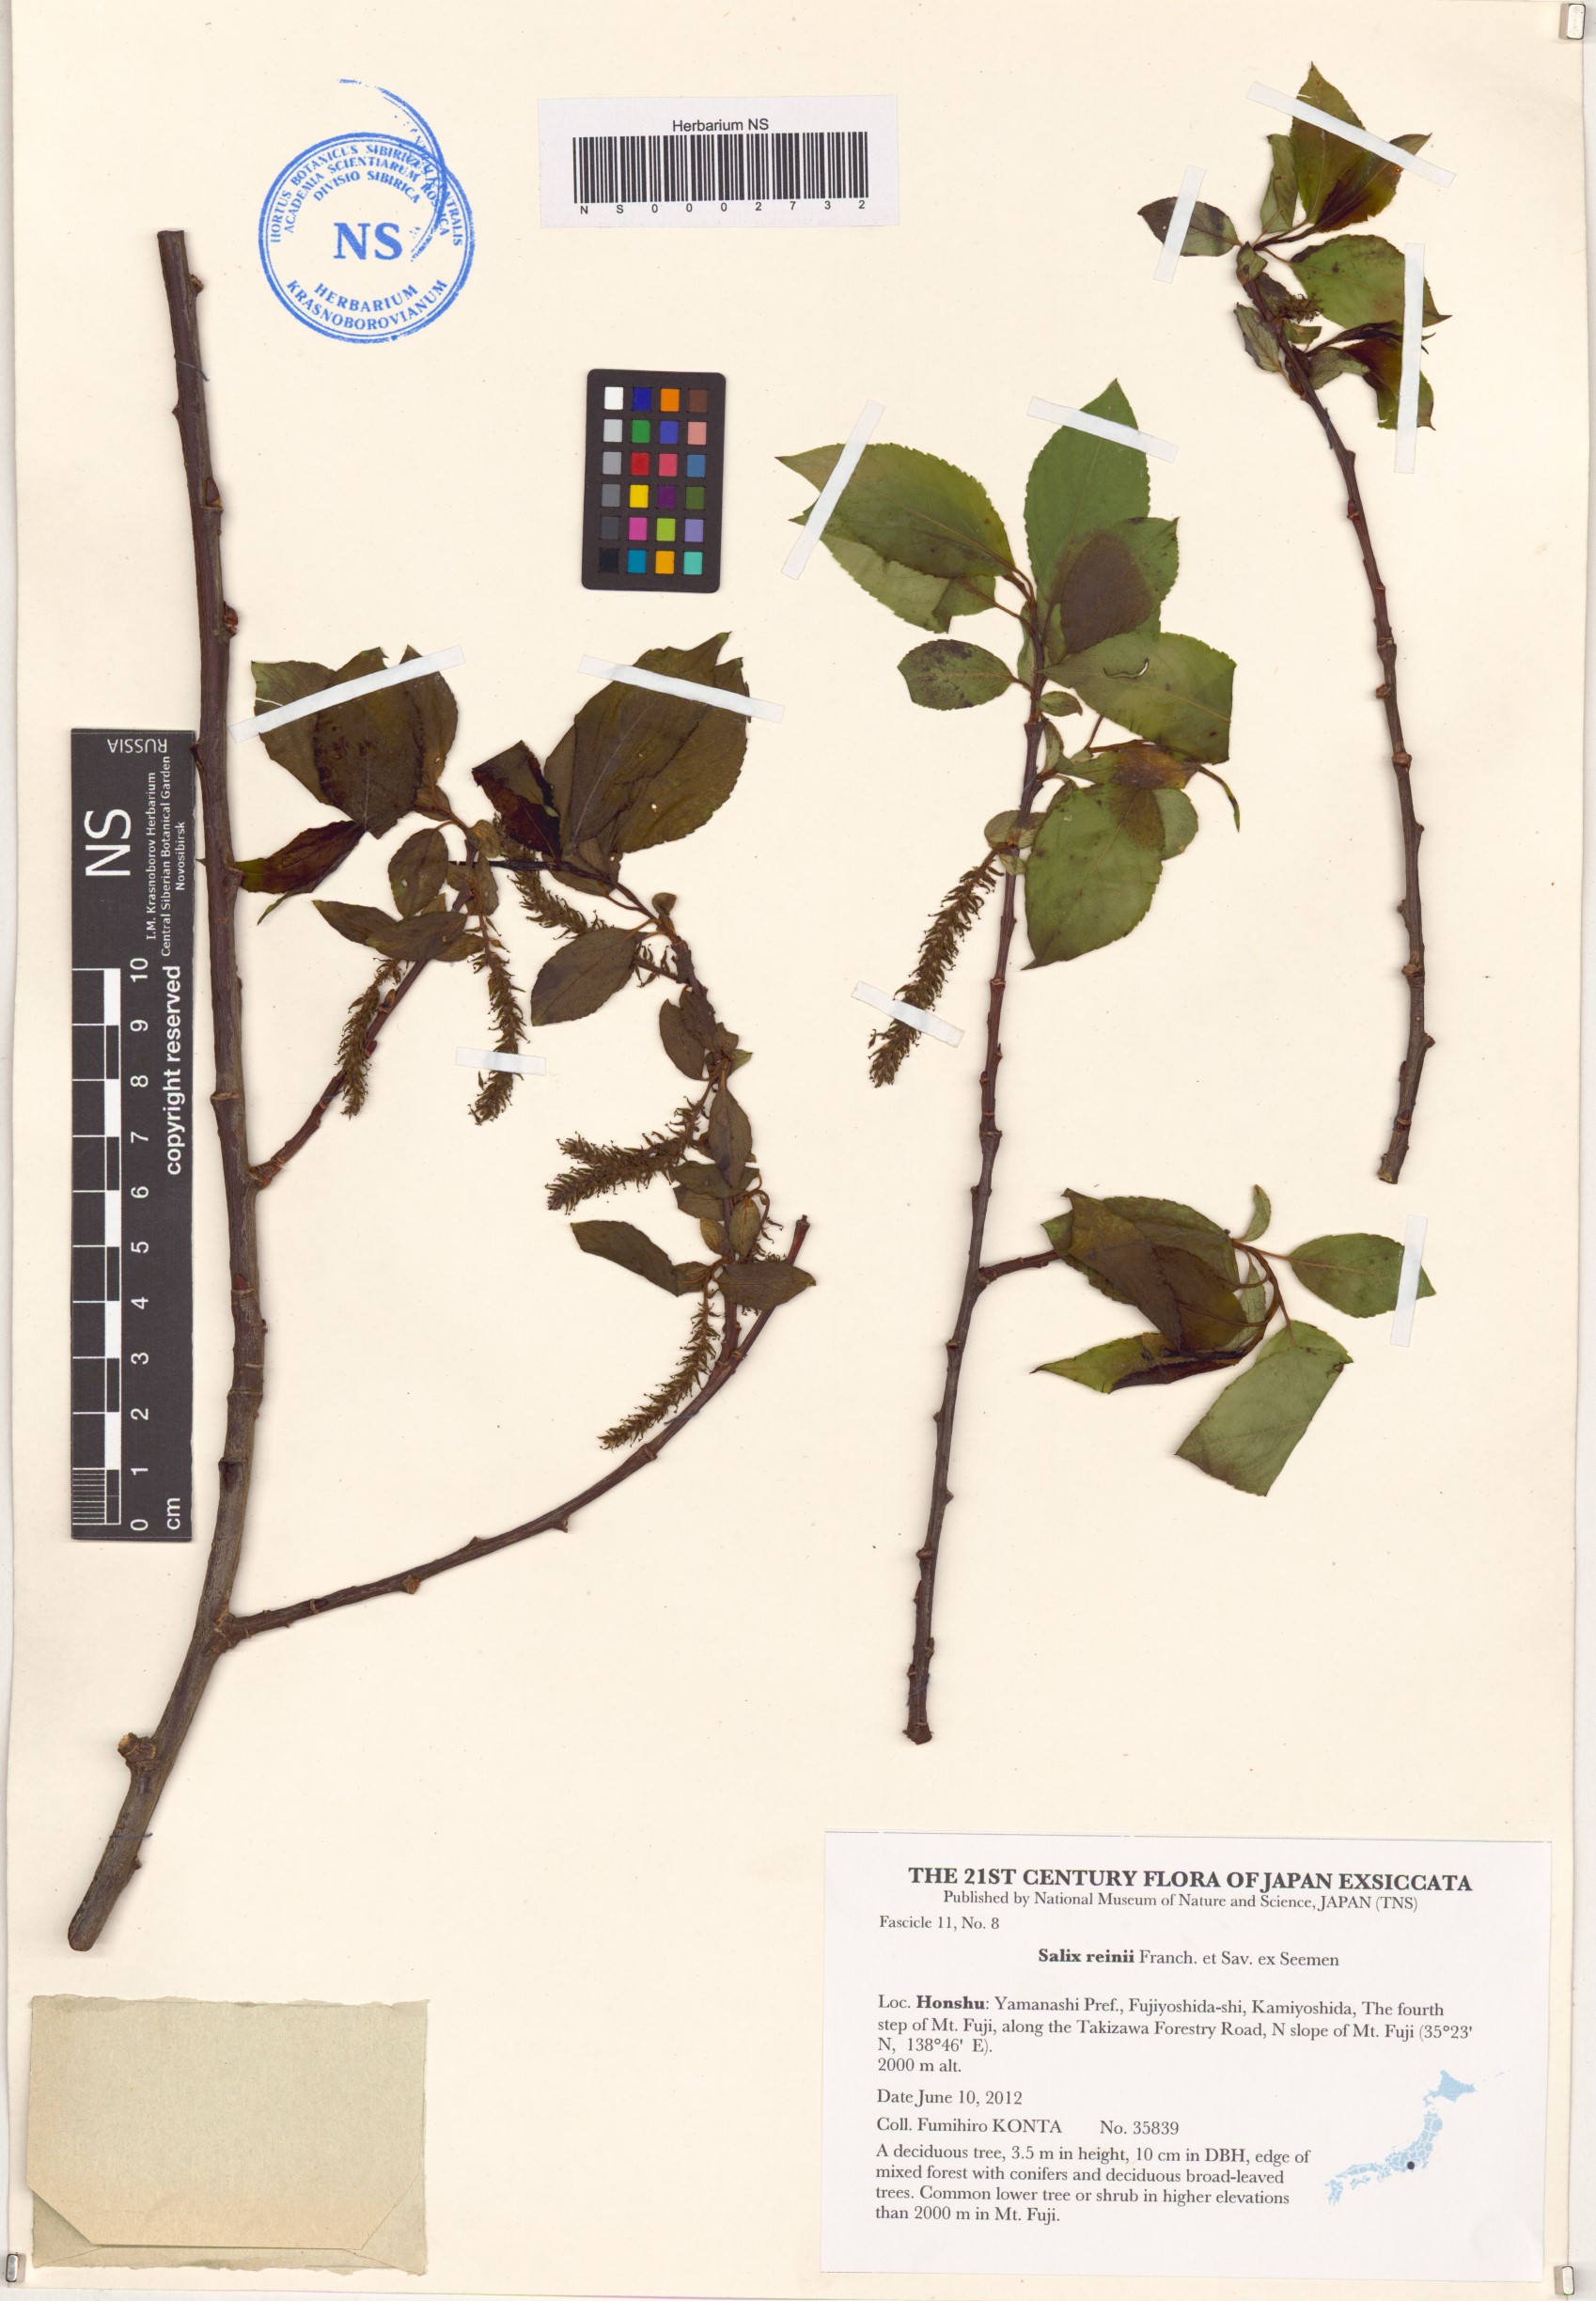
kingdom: Plantae
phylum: Tracheophyta
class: Magnoliopsida
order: Malpighiales
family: Salicaceae
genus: Salix
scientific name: Salix reinii
